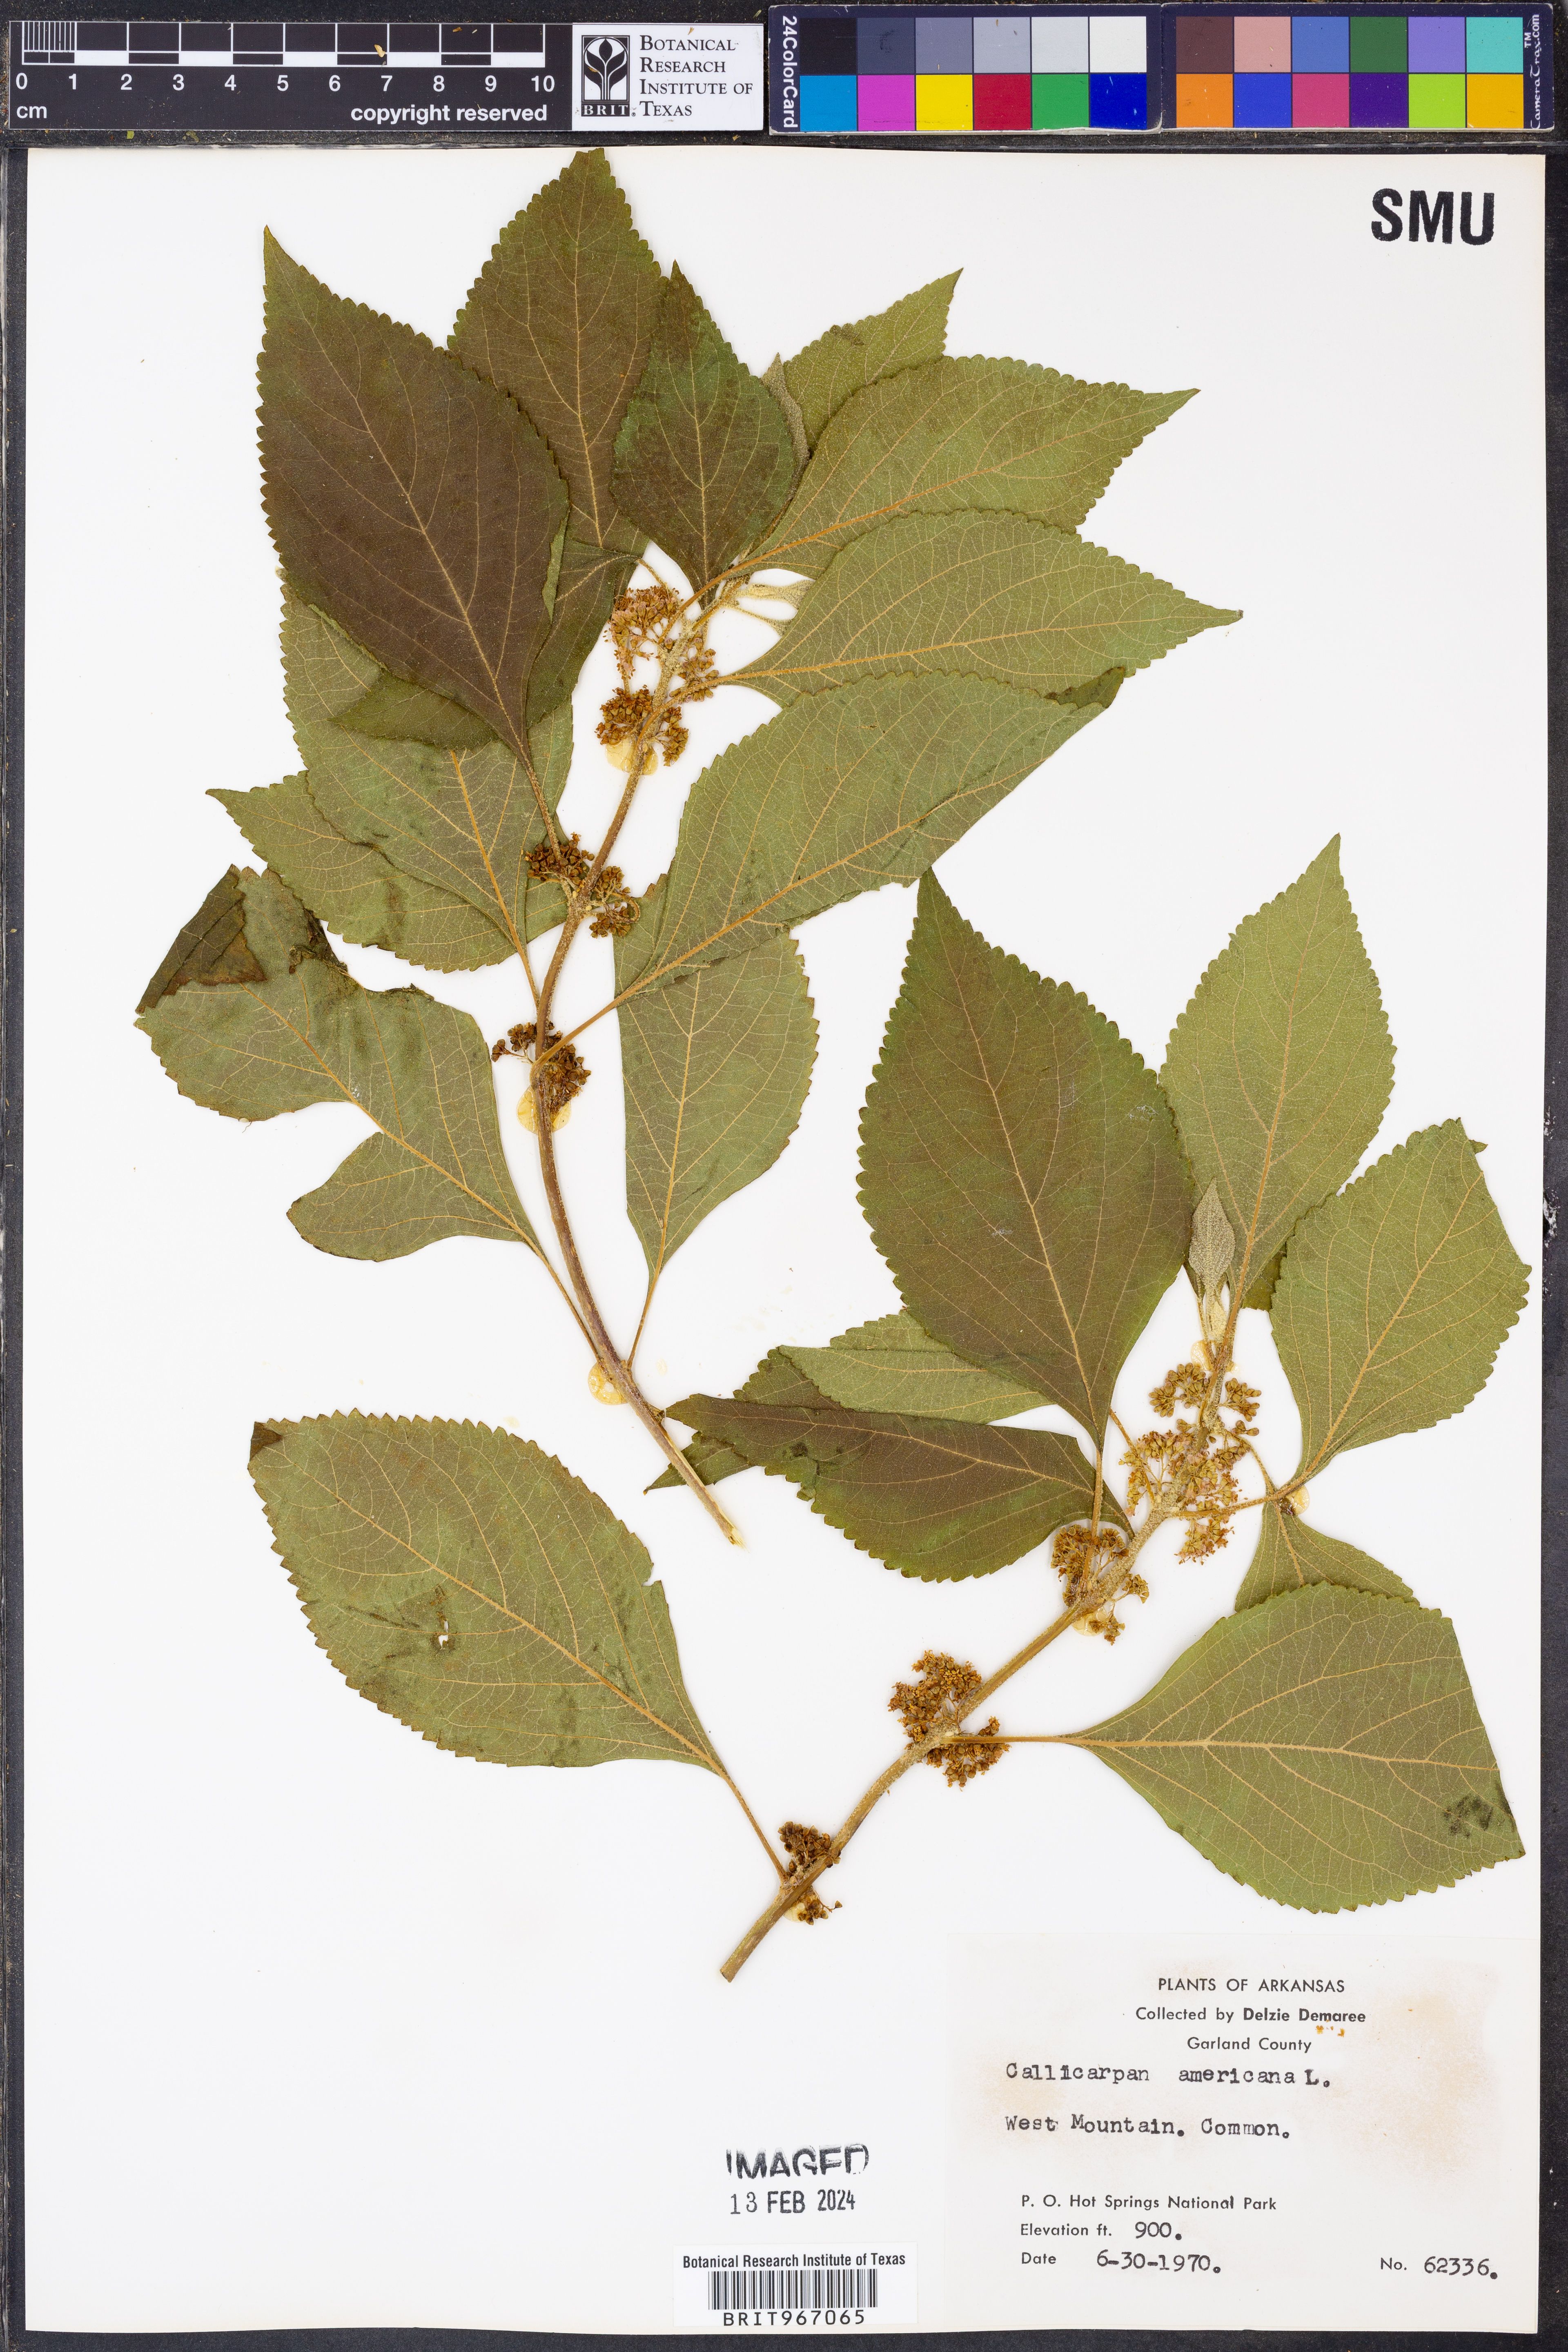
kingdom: Plantae
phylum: Tracheophyta
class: Magnoliopsida
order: Lamiales
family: Lamiaceae
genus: Callicarpa
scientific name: Callicarpa americana
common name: American beautyberry
